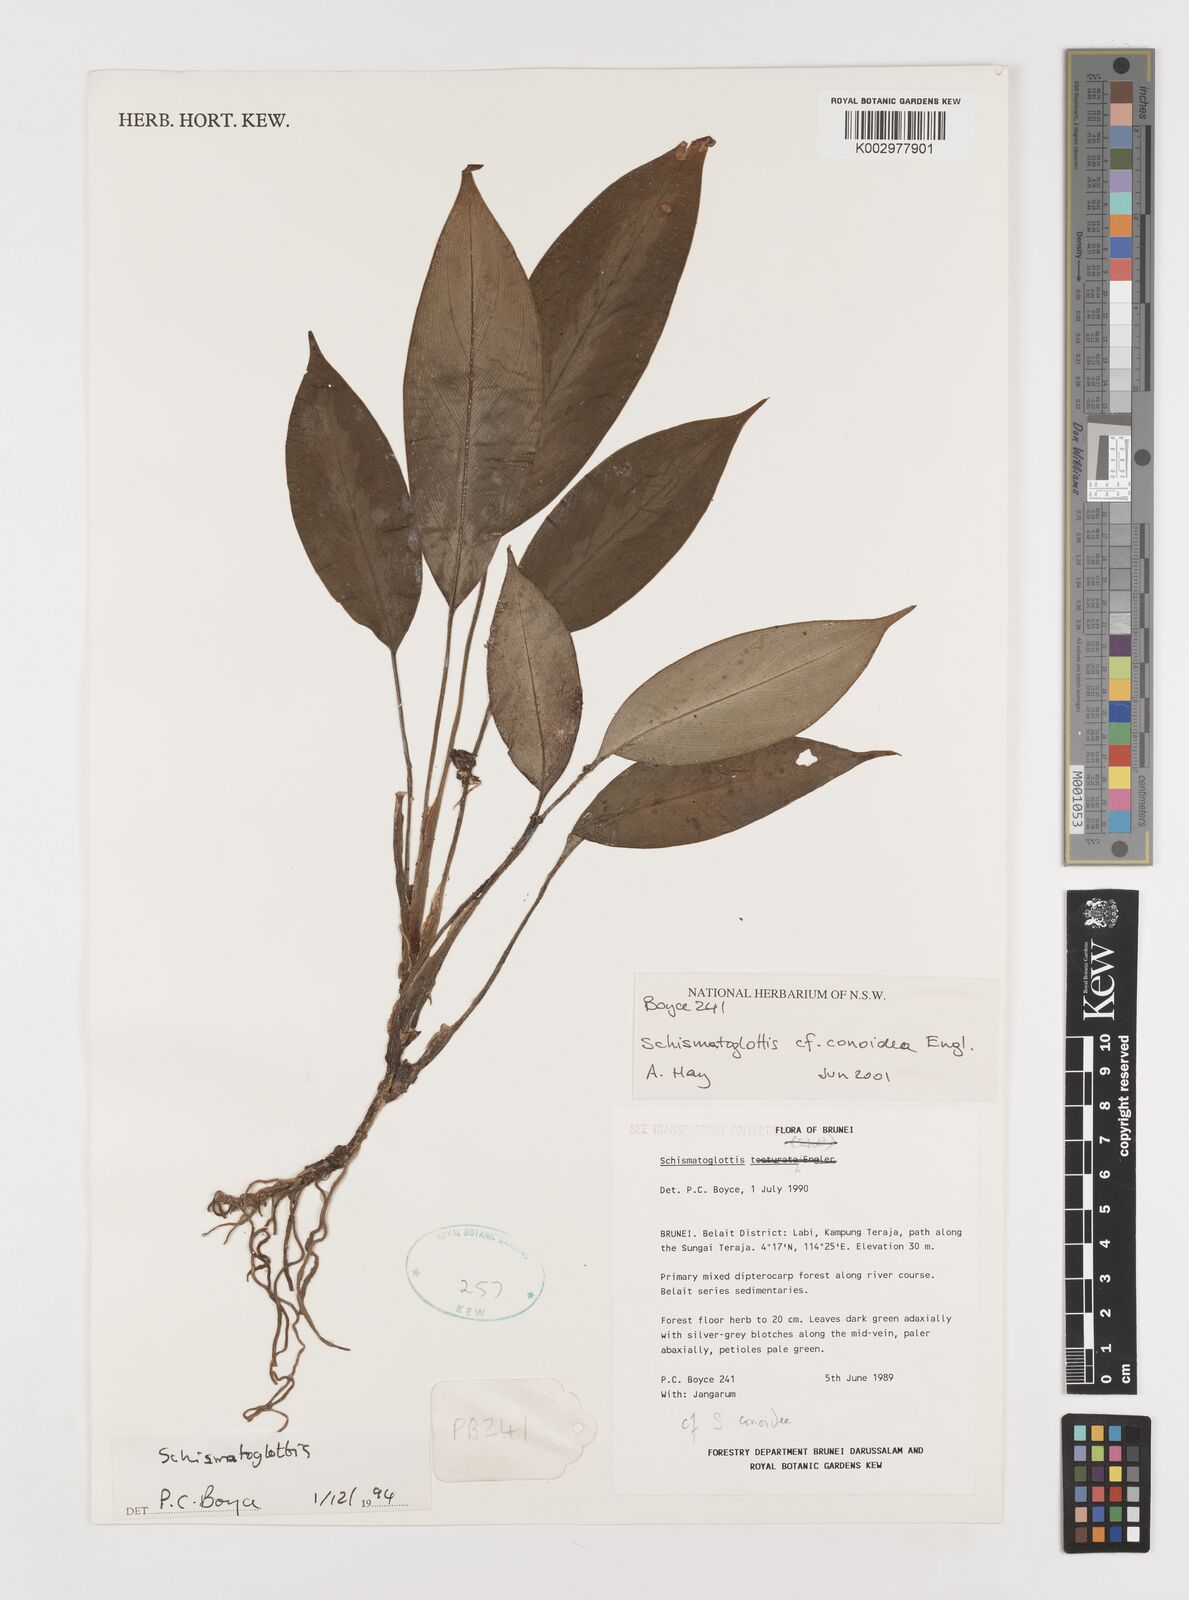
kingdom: Plantae
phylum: Tracheophyta
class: Liliopsida
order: Alismatales
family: Araceae
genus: Schismatoglottis
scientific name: Schismatoglottis conoidea
